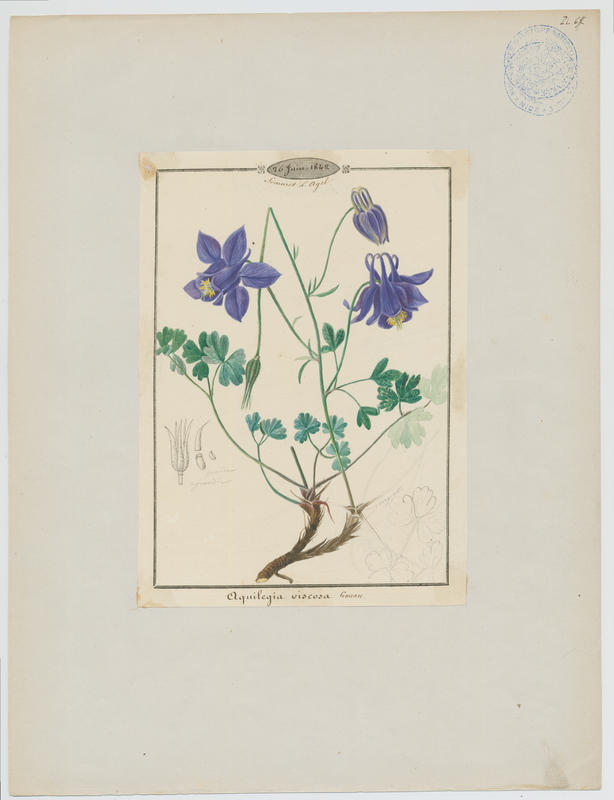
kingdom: Plantae
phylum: Tracheophyta
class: Magnoliopsida
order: Ranunculales
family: Ranunculaceae
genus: Aquilegia
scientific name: Aquilegia viscosa
